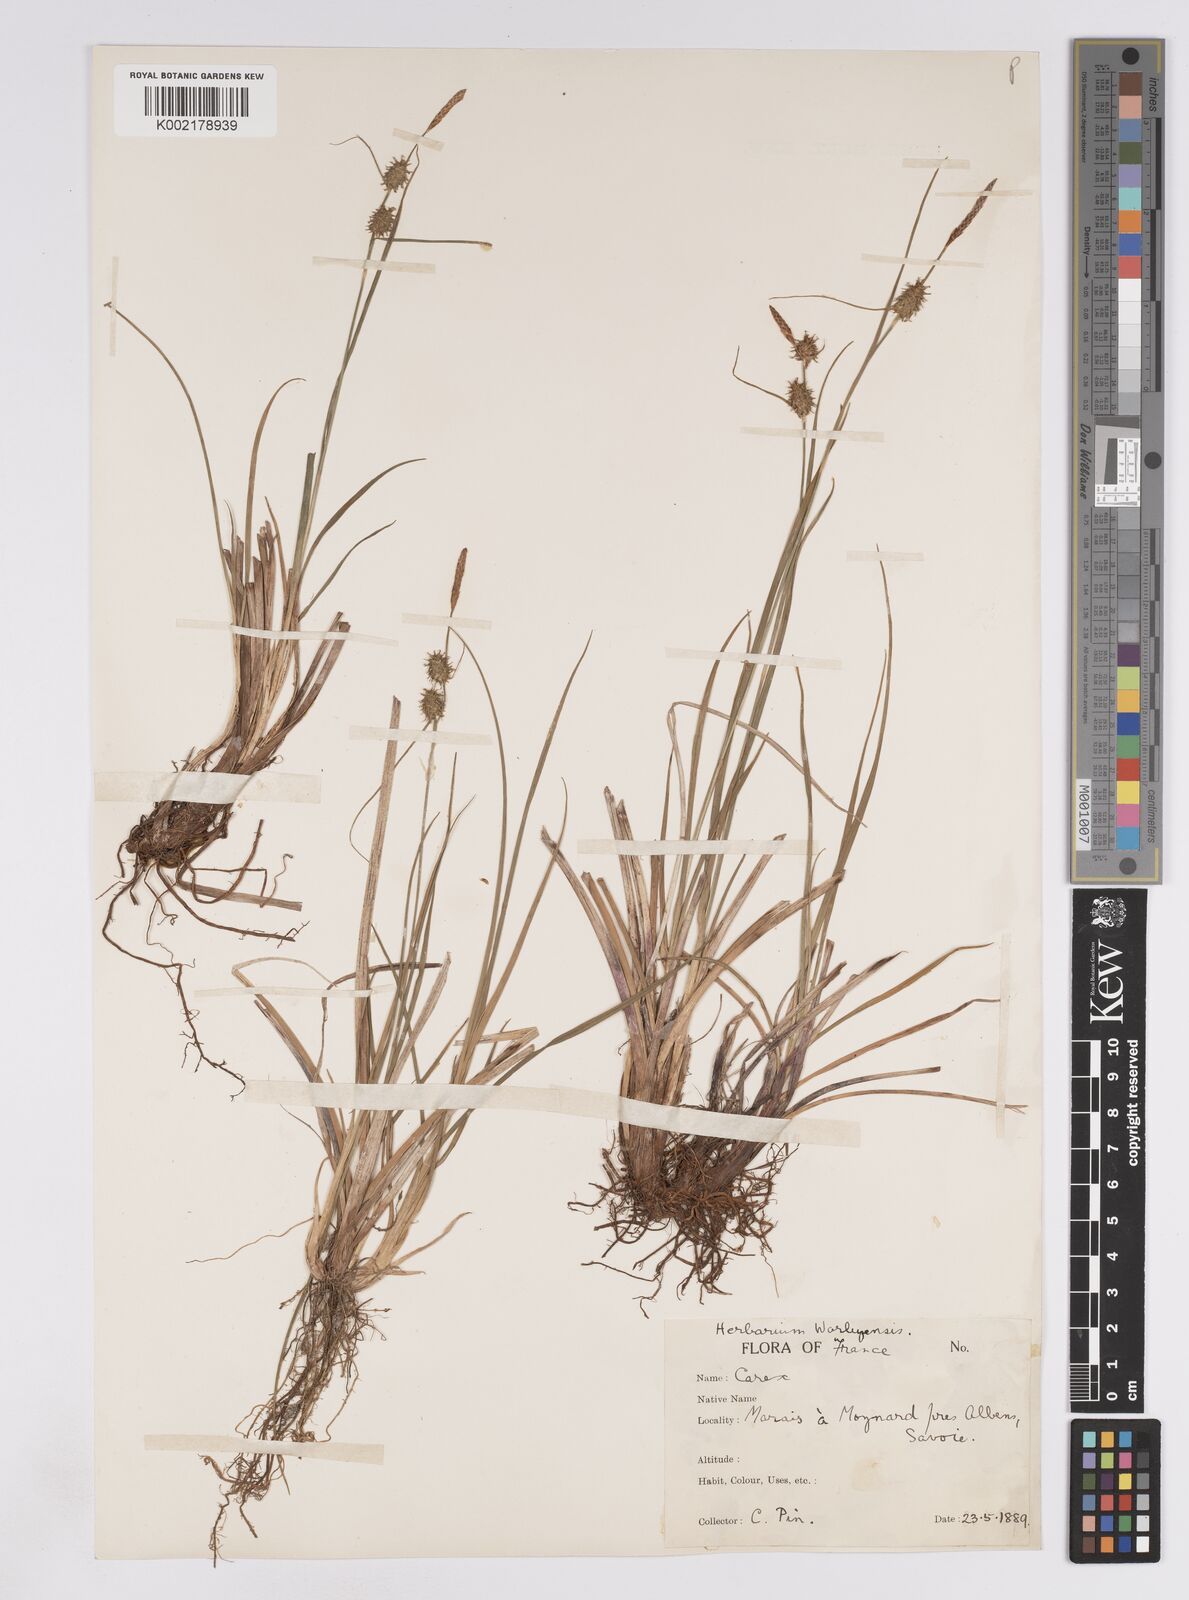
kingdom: Plantae
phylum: Tracheophyta
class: Liliopsida
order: Poales
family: Cyperaceae
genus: Carex
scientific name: Carex lepidocarpa
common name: Long-stalked yellow-sedge
